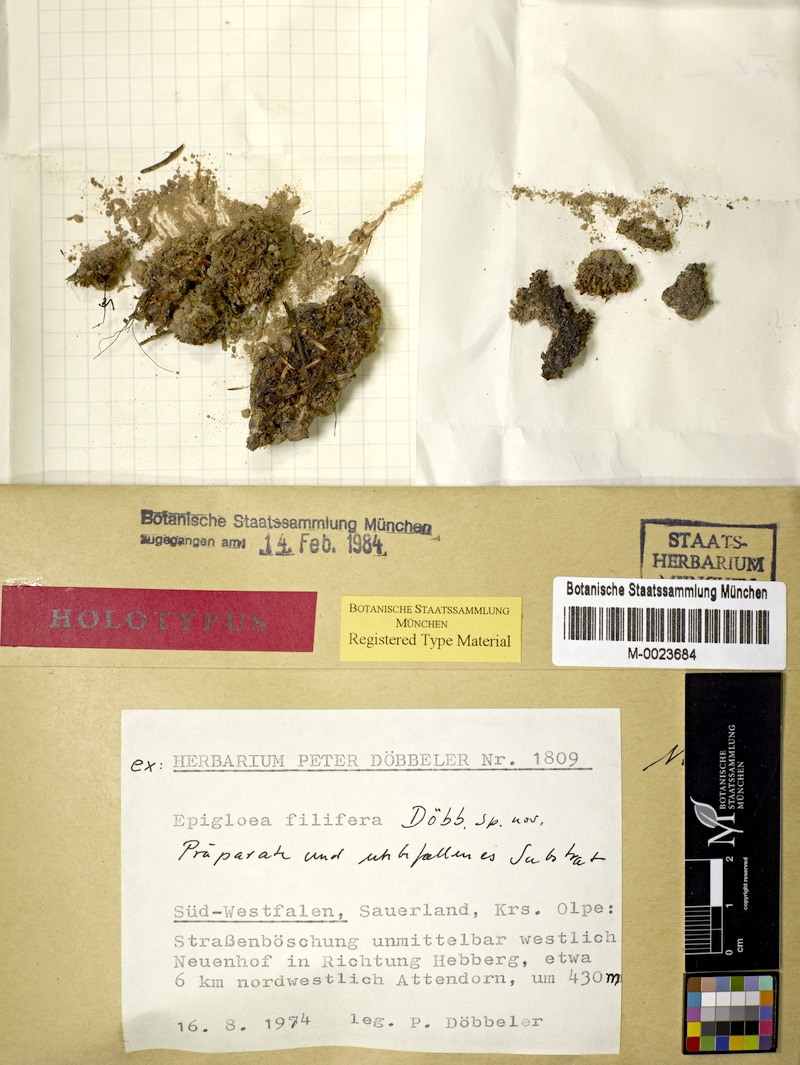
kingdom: Fungi
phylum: Ascomycota
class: Lecanoromycetes
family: Epigloeaceae
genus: Epigloea
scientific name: Epigloea filifera
